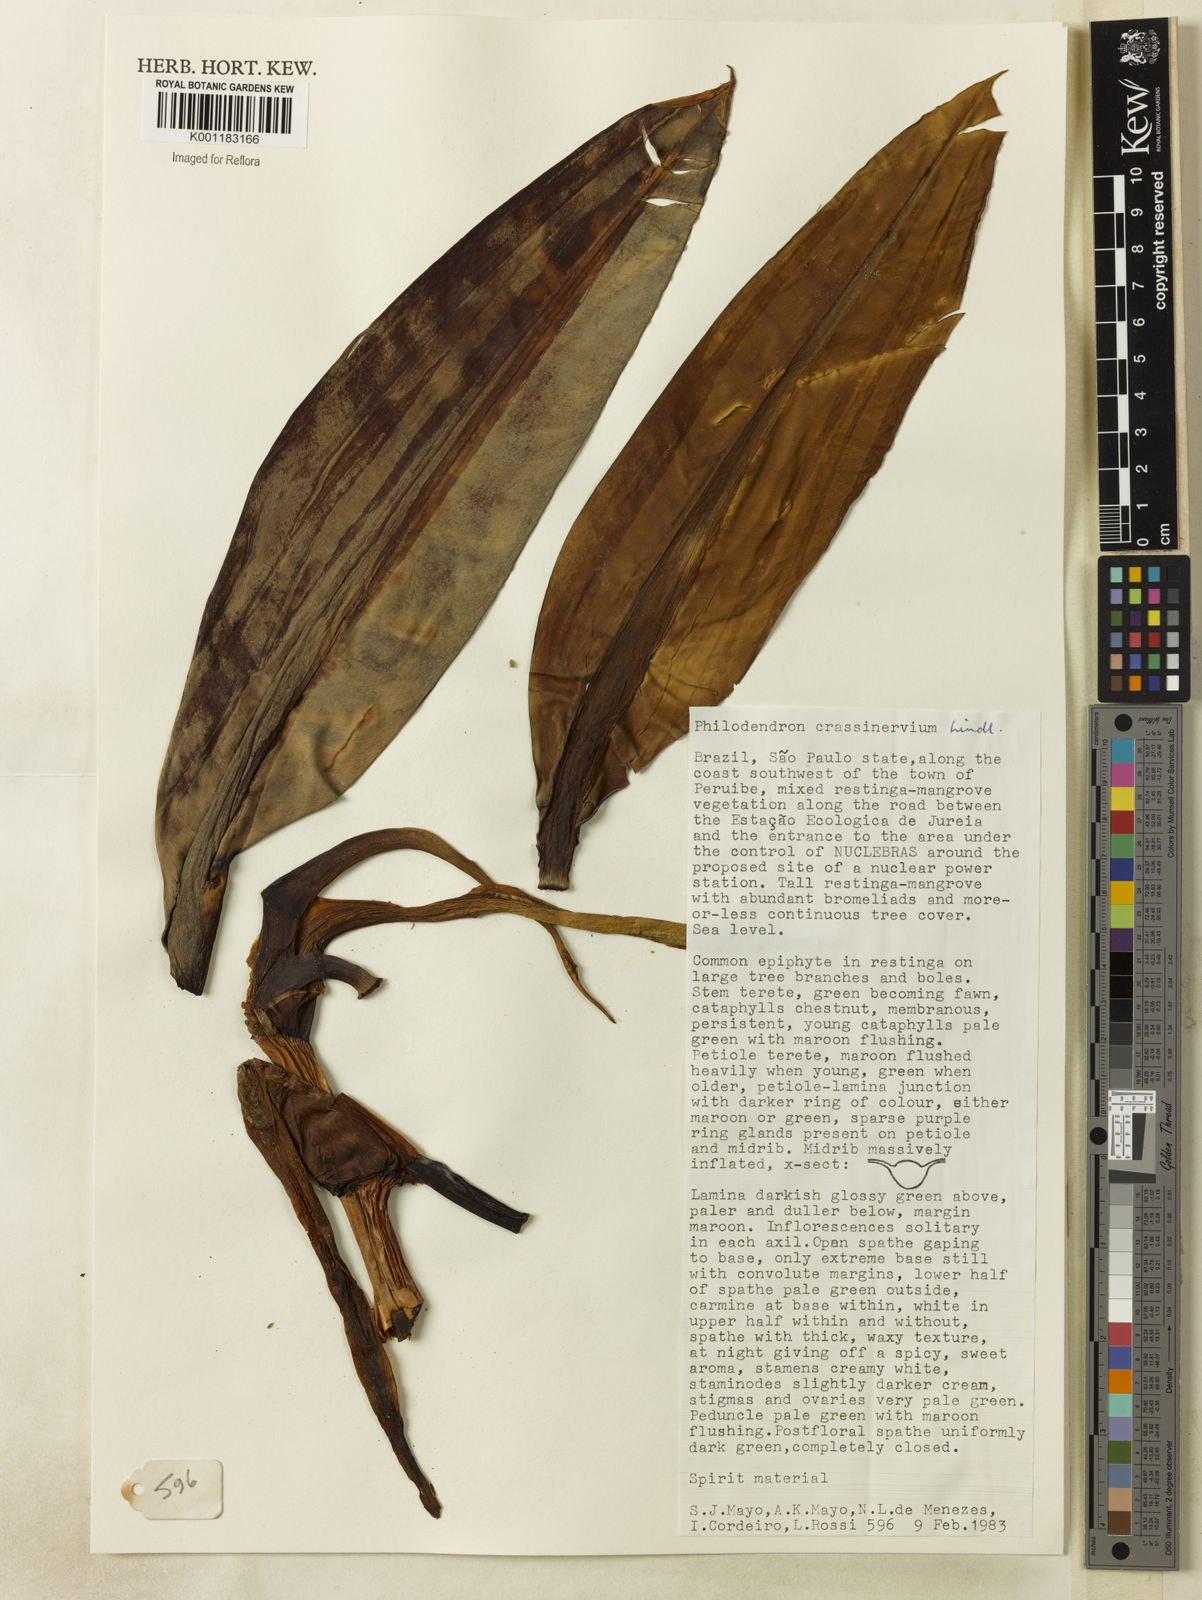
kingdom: Plantae
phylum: Tracheophyta
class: Liliopsida
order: Alismatales
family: Araceae
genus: Philodendron
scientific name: Philodendron crassinervium
